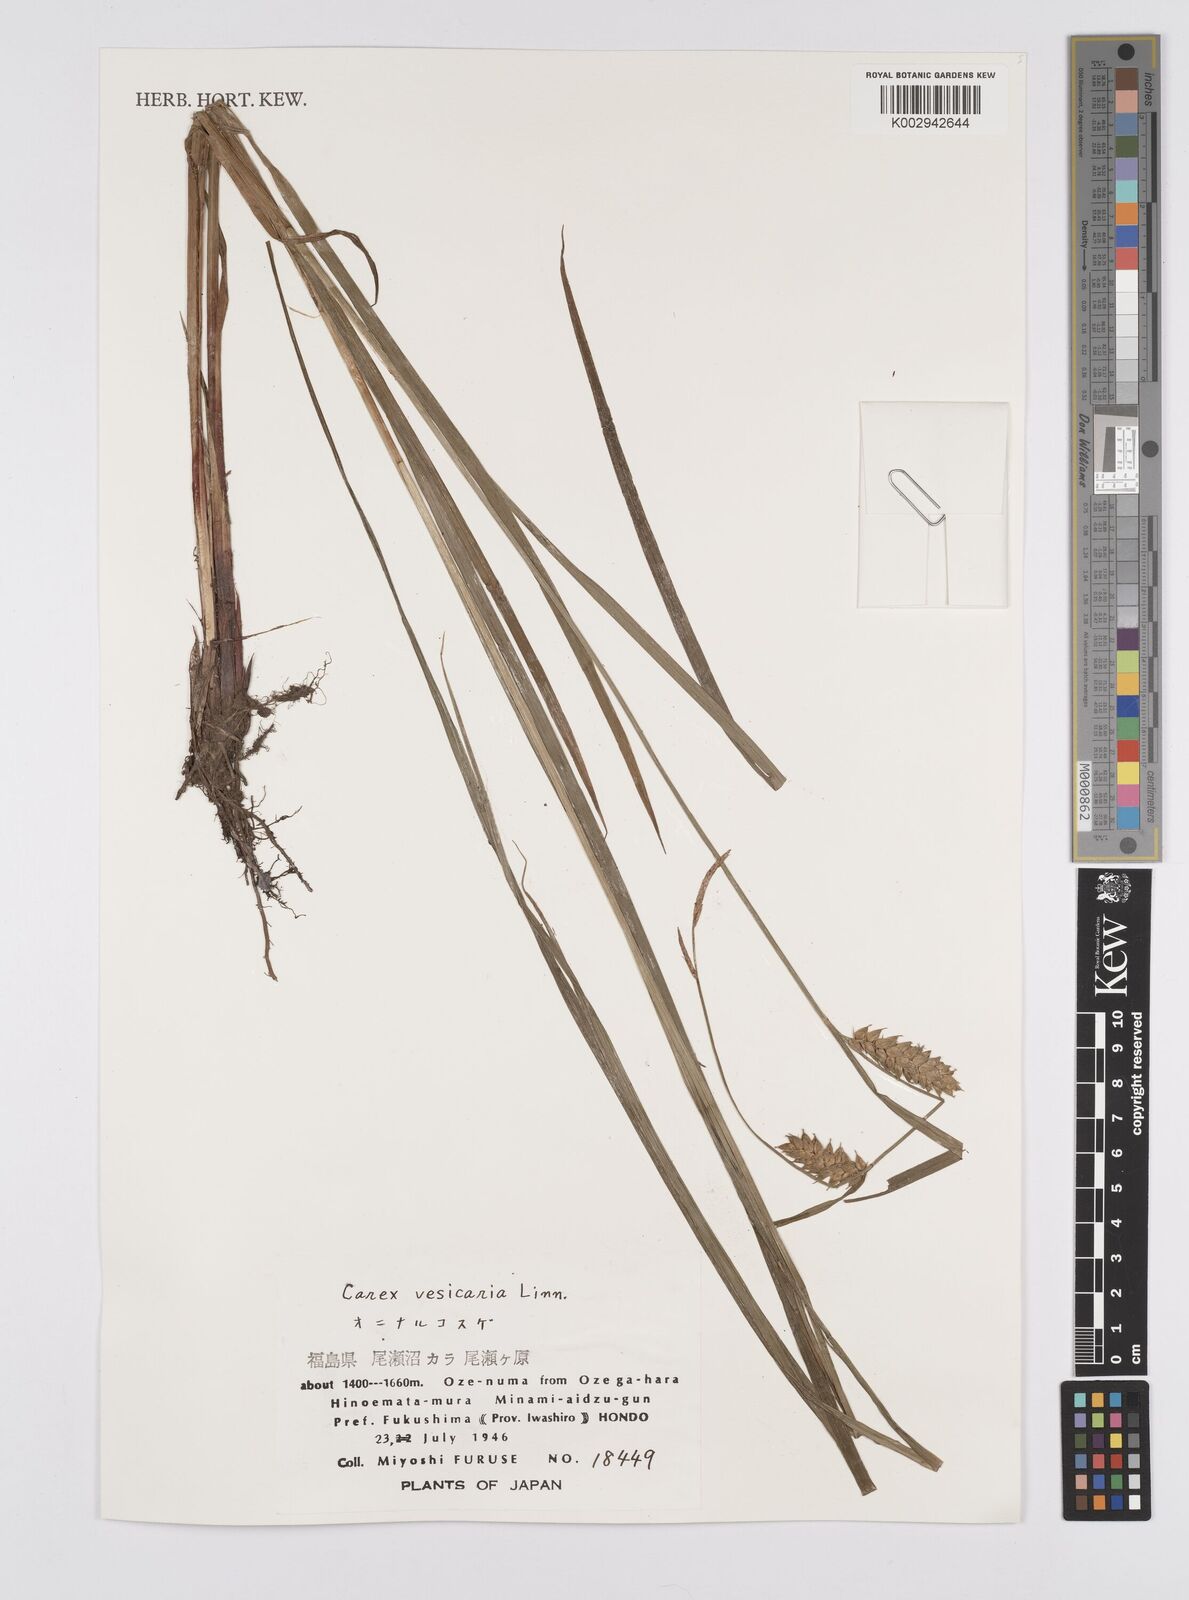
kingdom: Plantae
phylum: Tracheophyta
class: Liliopsida
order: Poales
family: Cyperaceae
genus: Carex
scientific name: Carex vesicaria
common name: Bladder-sedge
